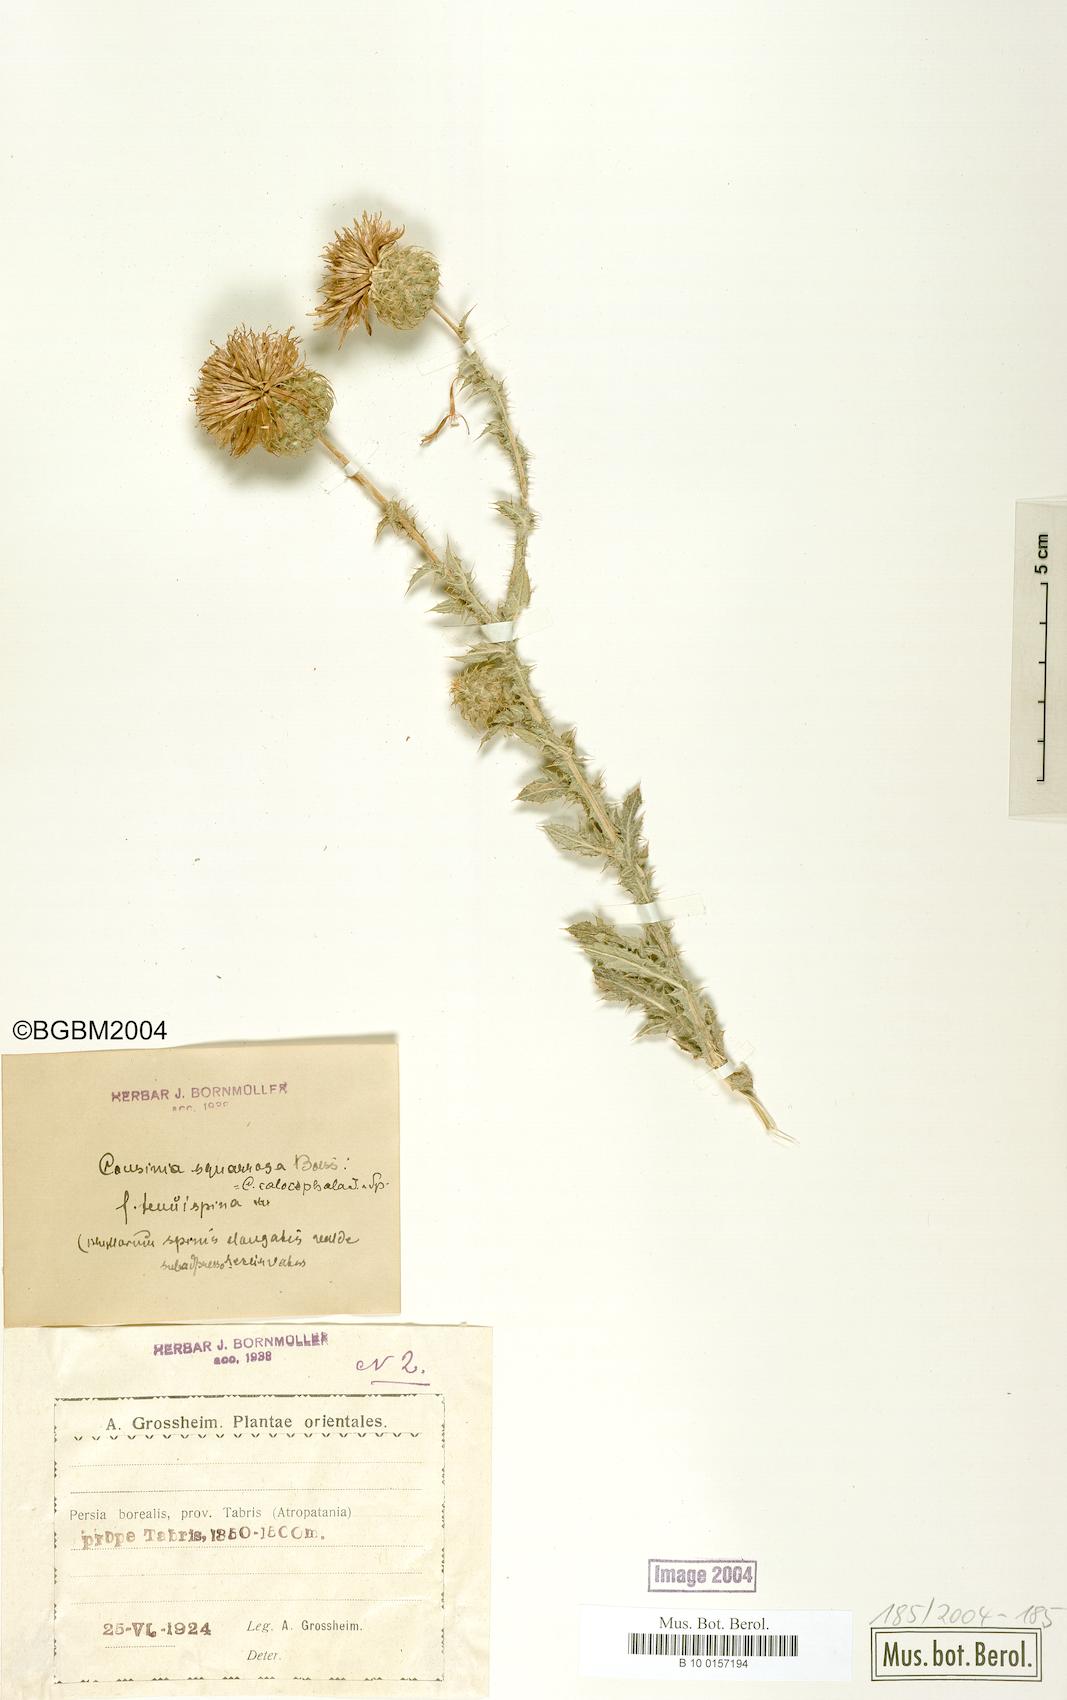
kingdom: Plantae
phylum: Tracheophyta
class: Magnoliopsida
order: Asterales
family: Asteraceae
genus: Cousinia
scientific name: Cousinia calocephala
